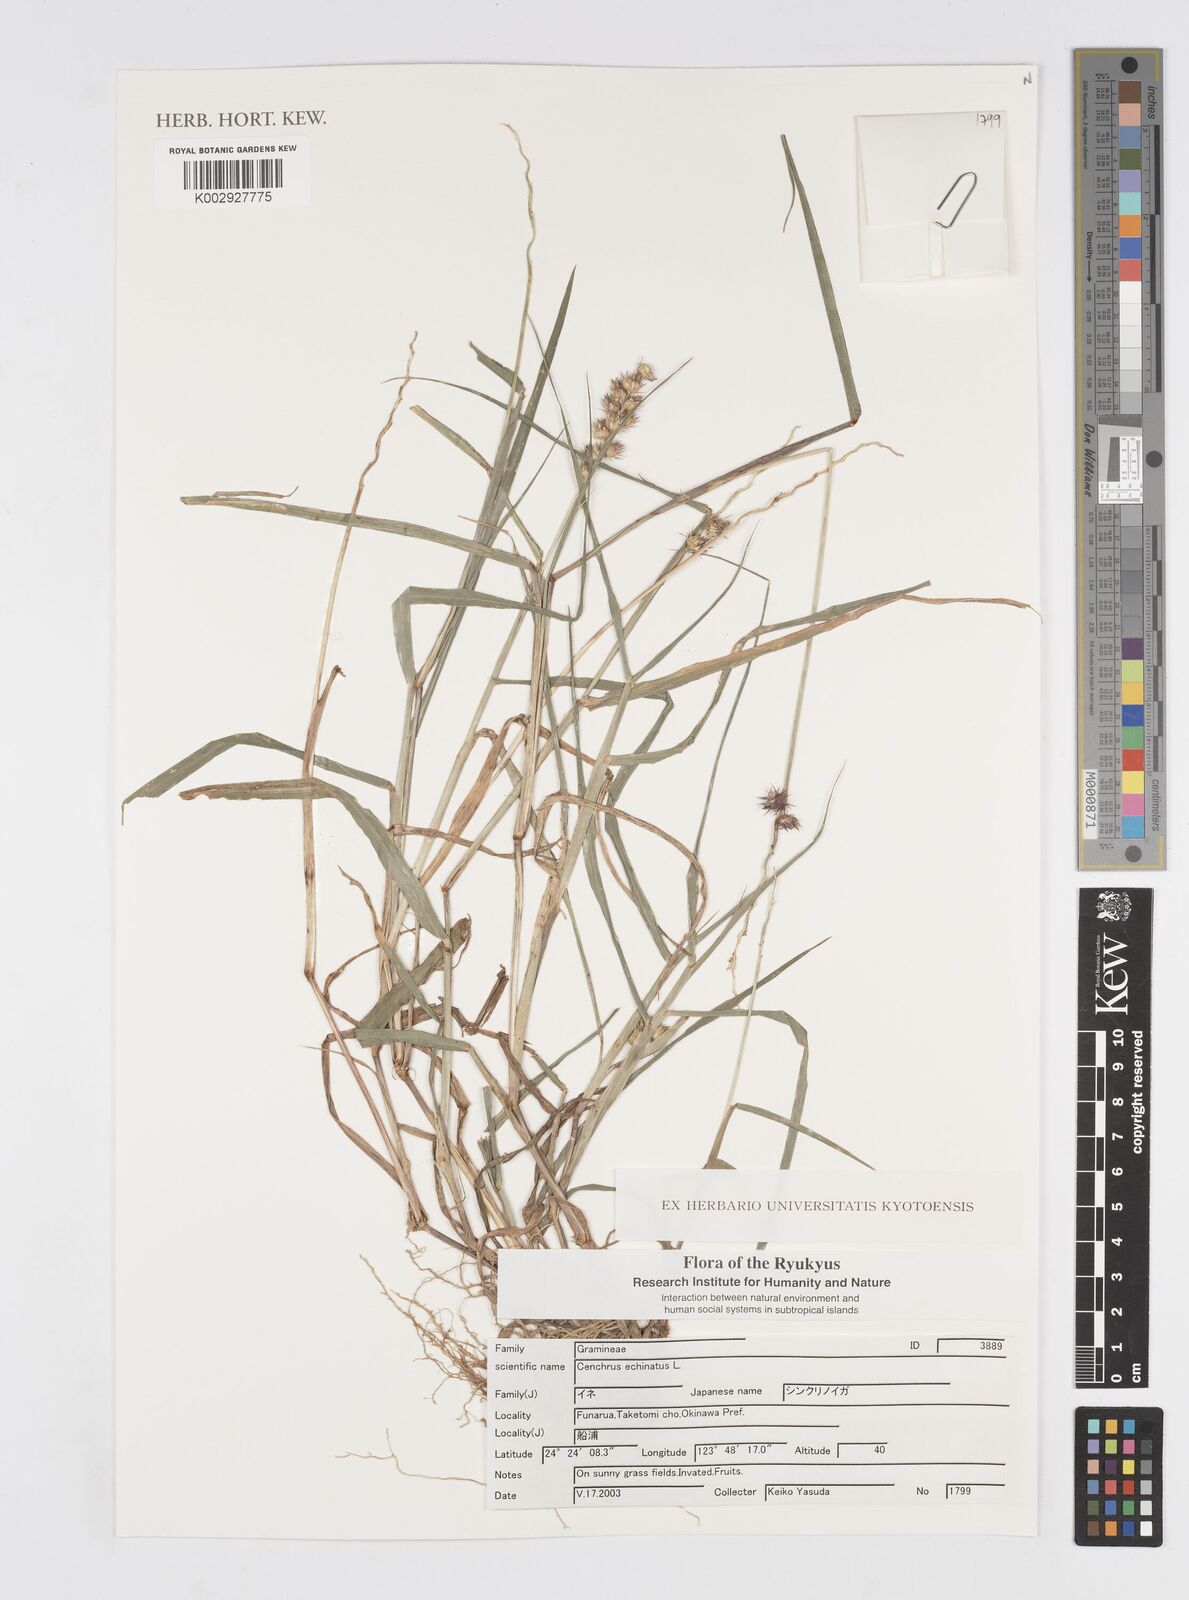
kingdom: Plantae
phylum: Tracheophyta
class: Liliopsida
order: Poales
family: Poaceae
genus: Cenchrus
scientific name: Cenchrus echinatus
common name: Southern sandbur
